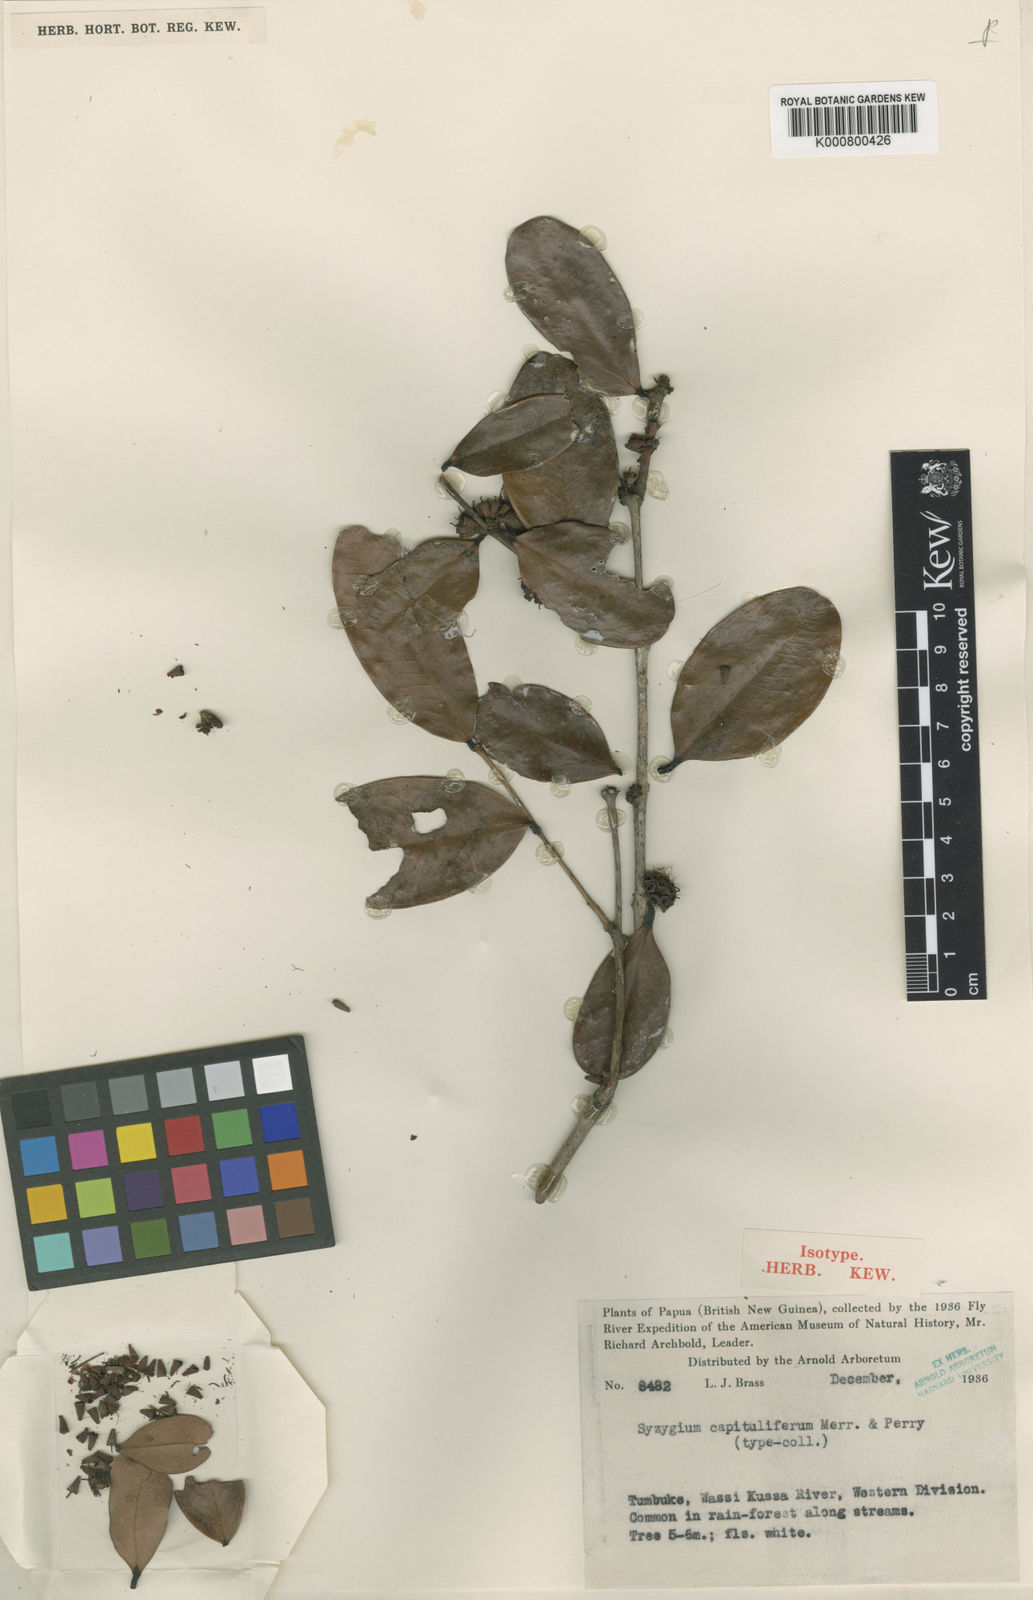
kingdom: Plantae
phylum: Tracheophyta
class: Magnoliopsida
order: Myrtales
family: Myrtaceae
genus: Syzygium
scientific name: Syzygium capituliferum
